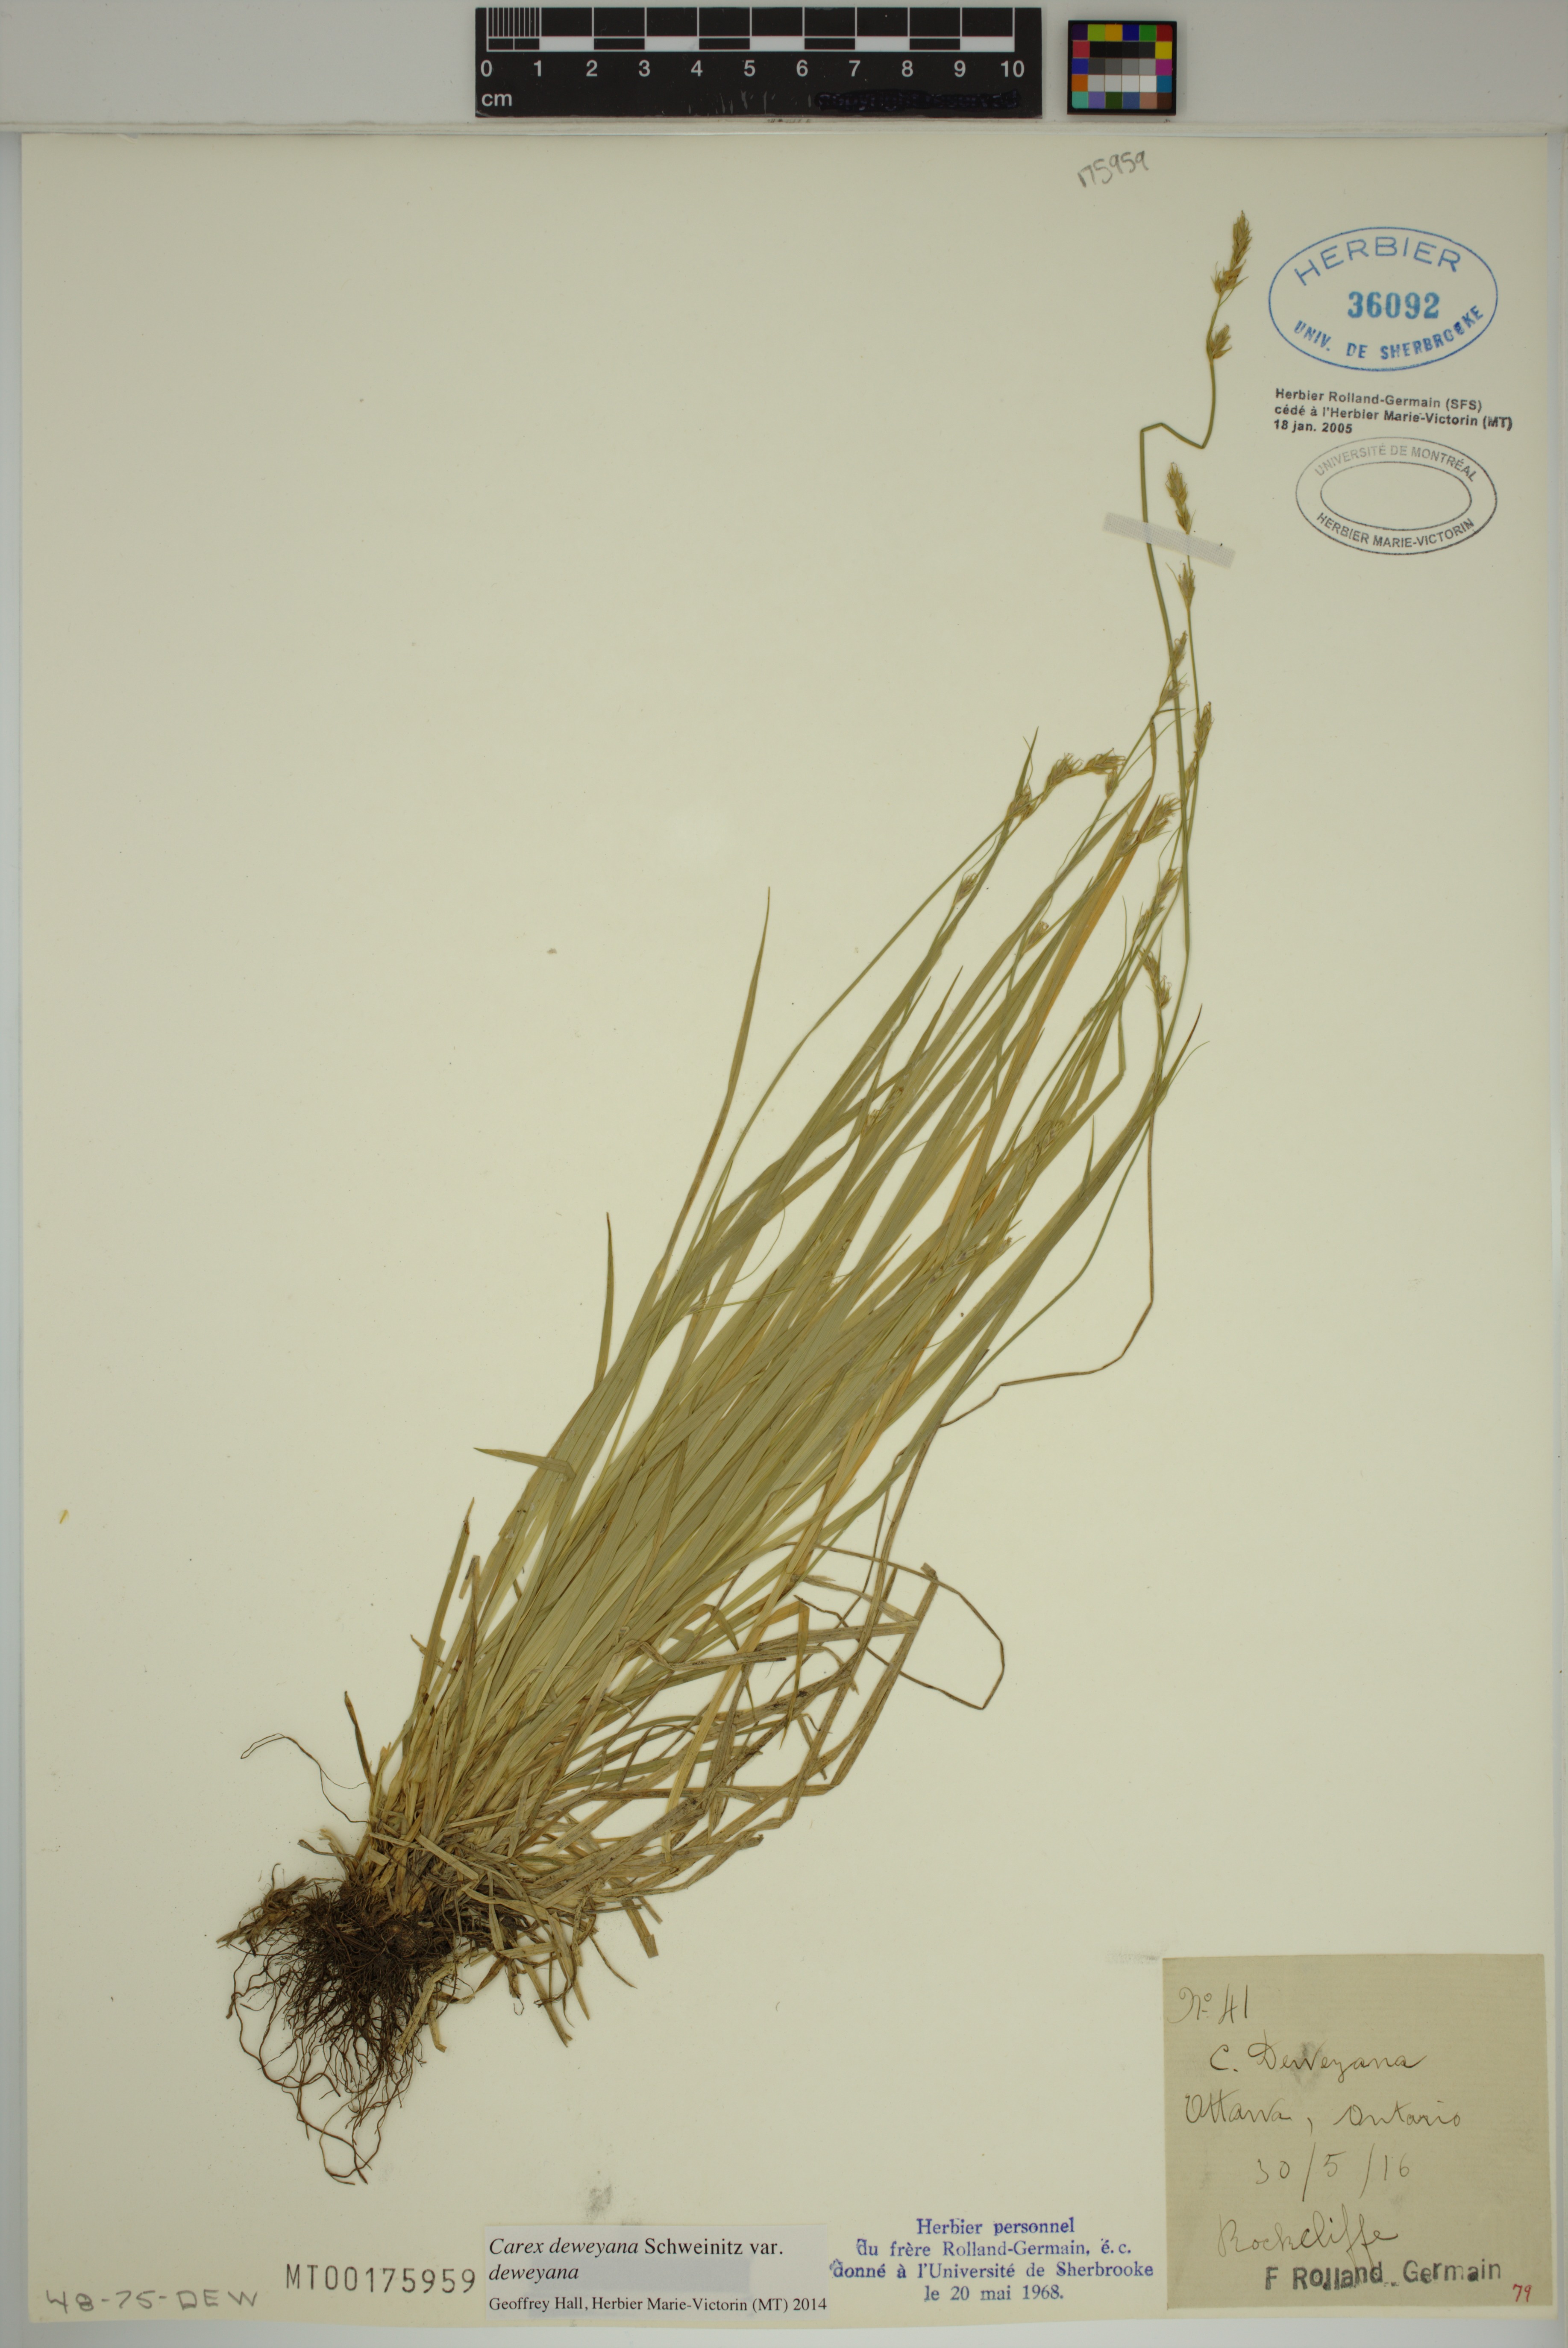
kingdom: Plantae
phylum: Tracheophyta
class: Liliopsida
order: Poales
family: Cyperaceae
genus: Carex
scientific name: Carex deweyana
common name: Dewey's sedge
